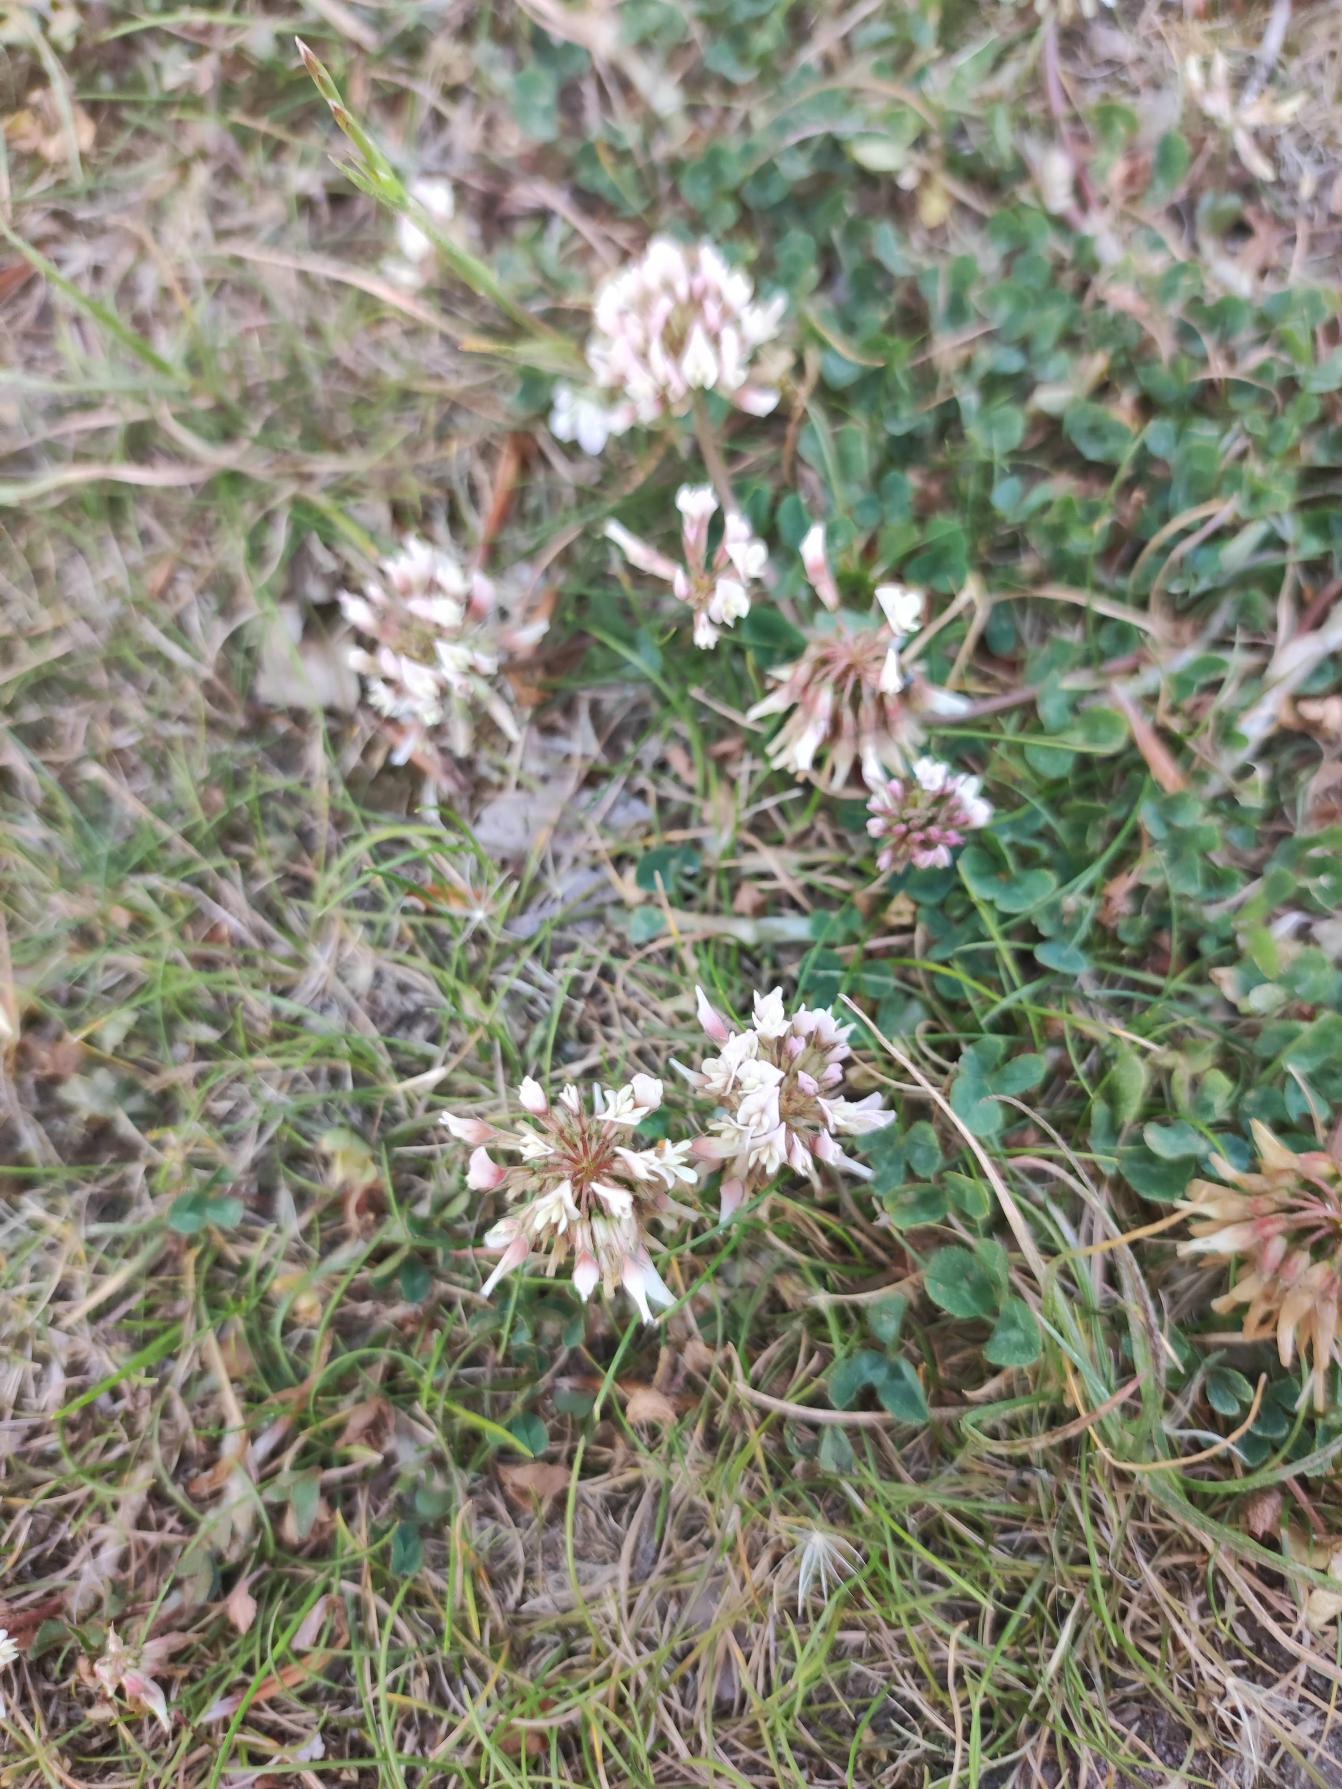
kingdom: Plantae
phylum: Tracheophyta
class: Magnoliopsida
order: Fabales
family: Fabaceae
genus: Trifolium
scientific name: Trifolium repens
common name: Hvid-kløver
